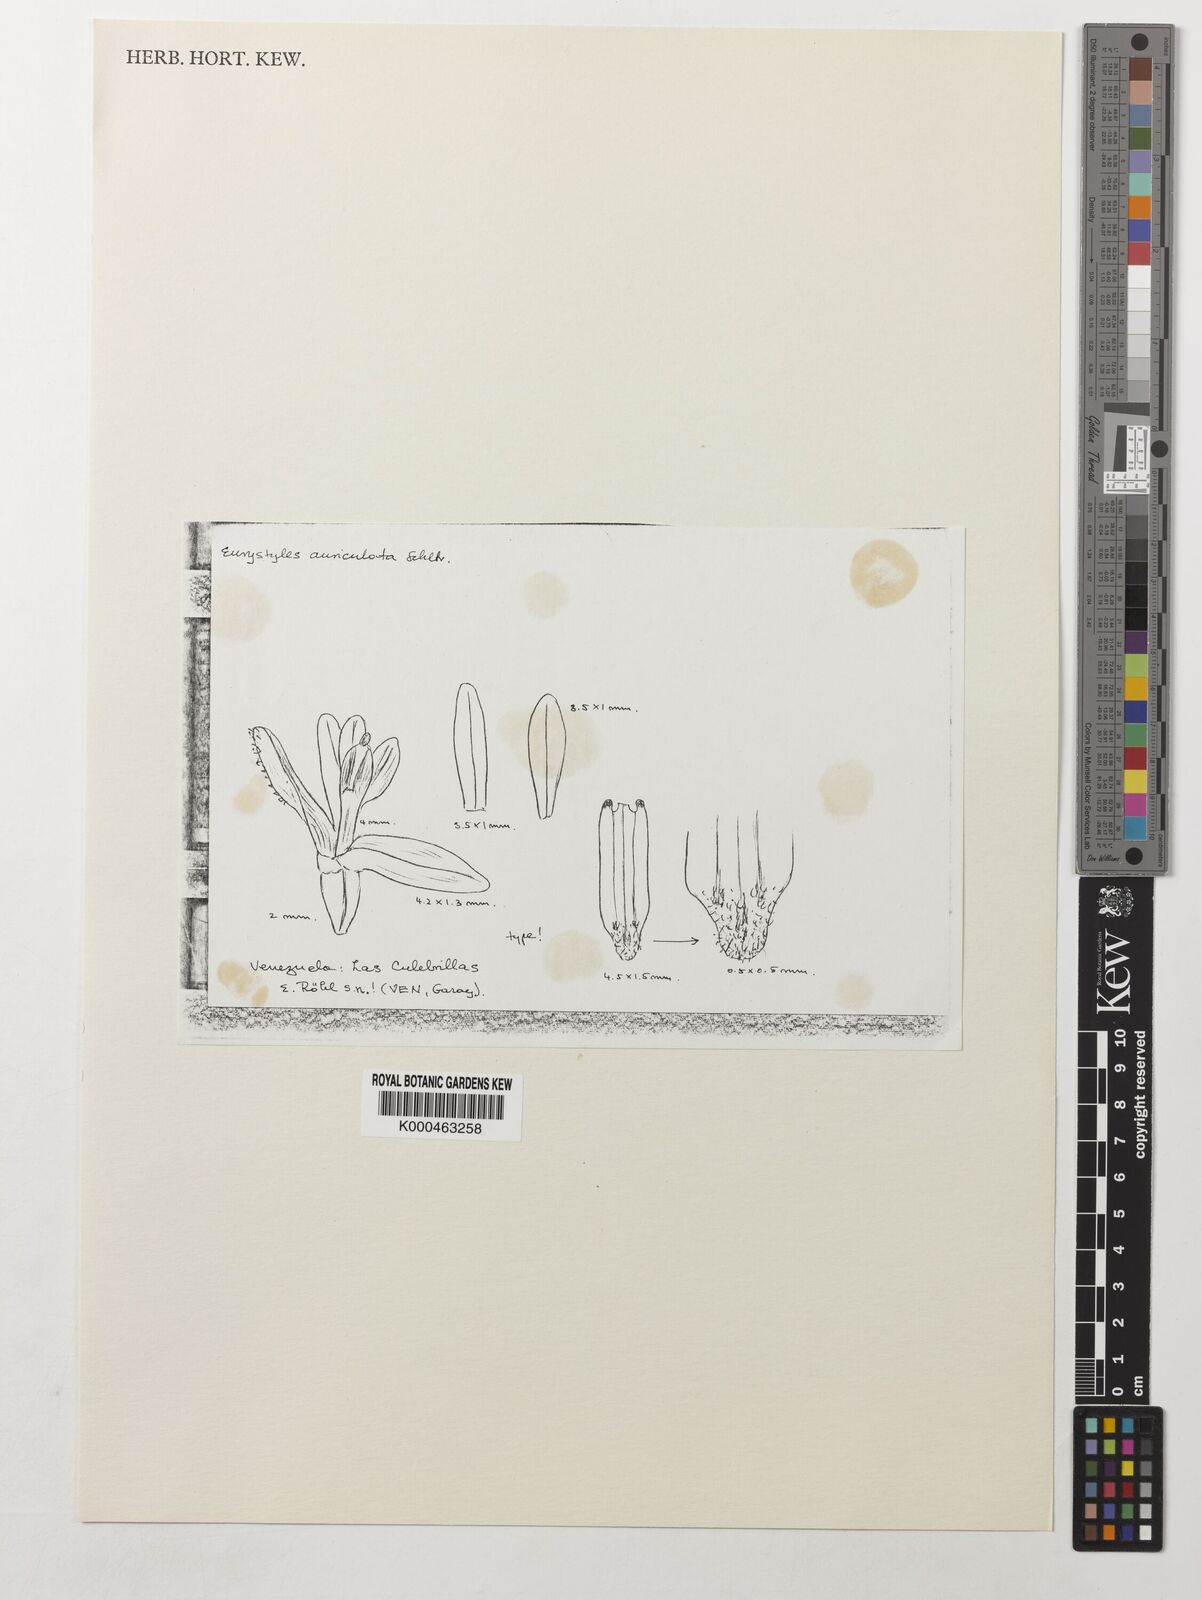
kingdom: Plantae
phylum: Tracheophyta
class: Liliopsida
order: Asparagales
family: Orchidaceae
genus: Eurystyles
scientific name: Eurystyles auriculata
